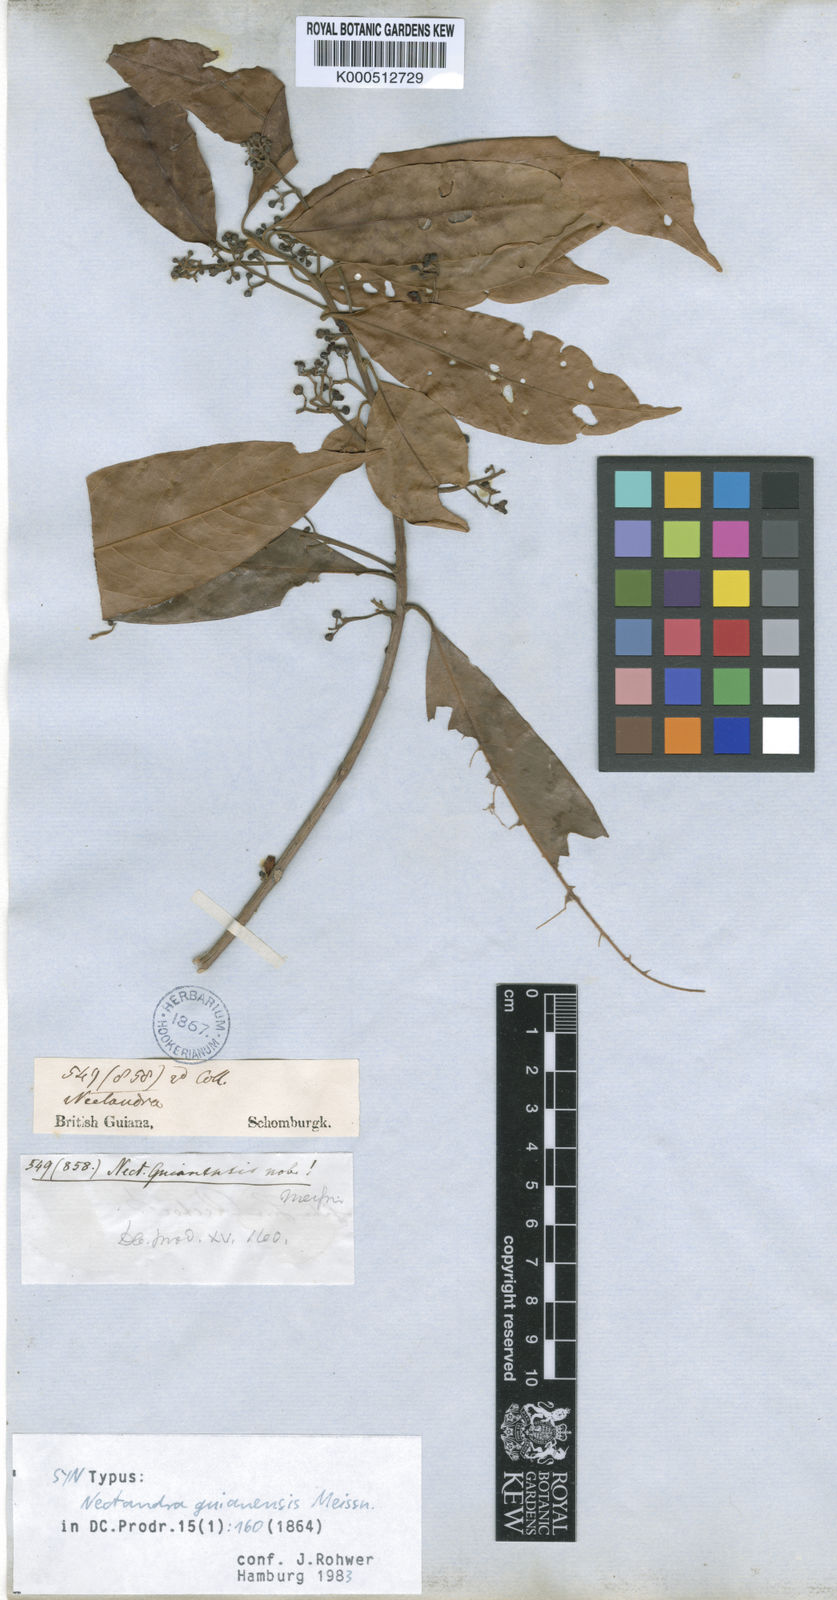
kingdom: Plantae
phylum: Tracheophyta
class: Magnoliopsida
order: Laurales
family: Lauraceae
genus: Nectandra
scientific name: Nectandra sanguinea
